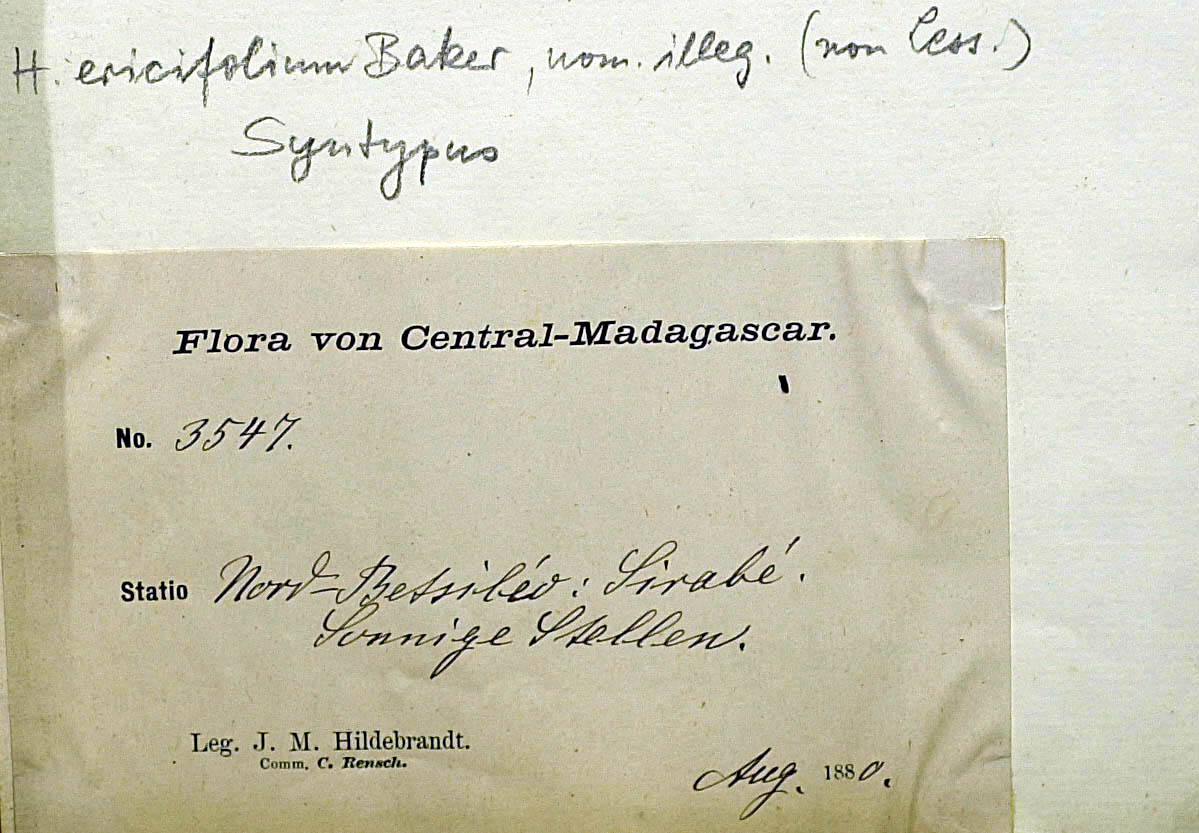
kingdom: Plantae
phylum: Tracheophyta
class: Magnoliopsida
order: Asterales
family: Asteraceae
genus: Helichrysum
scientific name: Helichrysum aphelexioides
